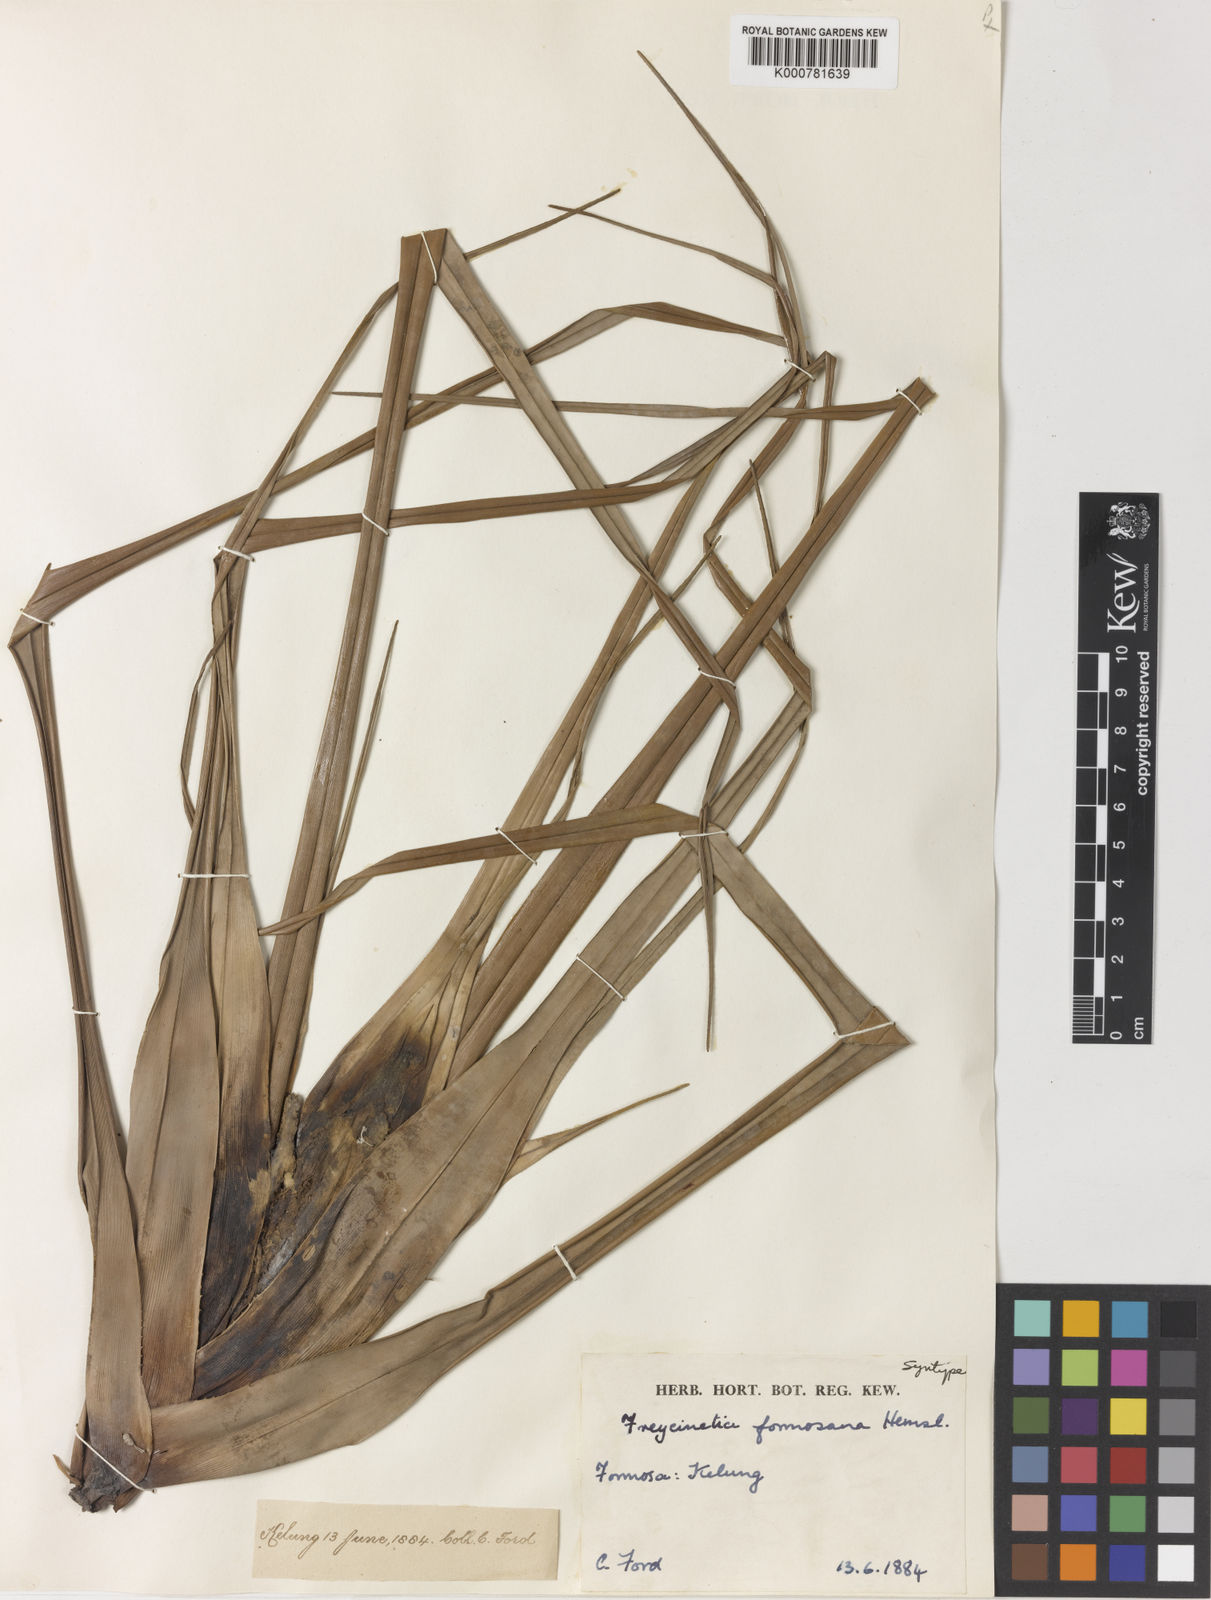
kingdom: Plantae
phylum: Tracheophyta
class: Liliopsida
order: Pandanales
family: Pandanaceae
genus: Freycinetia
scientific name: Freycinetia formosana
